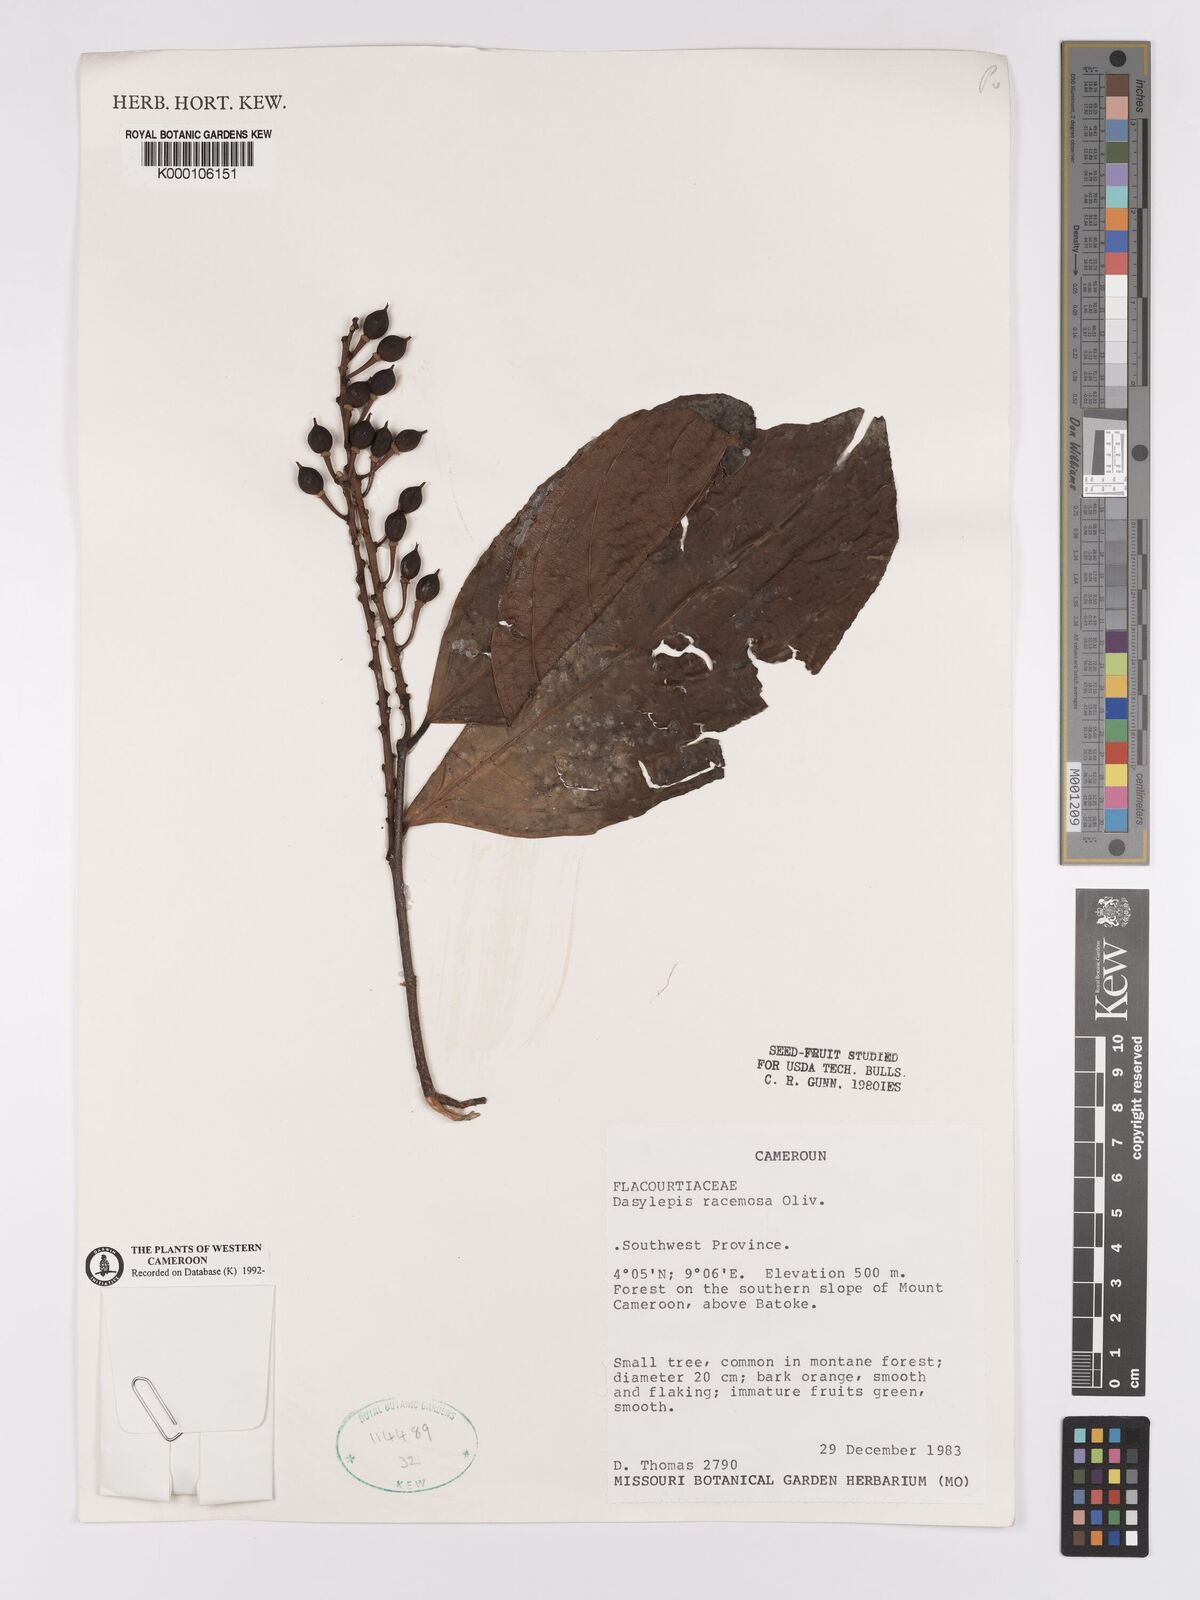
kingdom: Plantae
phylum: Tracheophyta
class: Magnoliopsida
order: Malpighiales
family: Achariaceae
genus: Dasylepis
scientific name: Dasylepis racemosa
